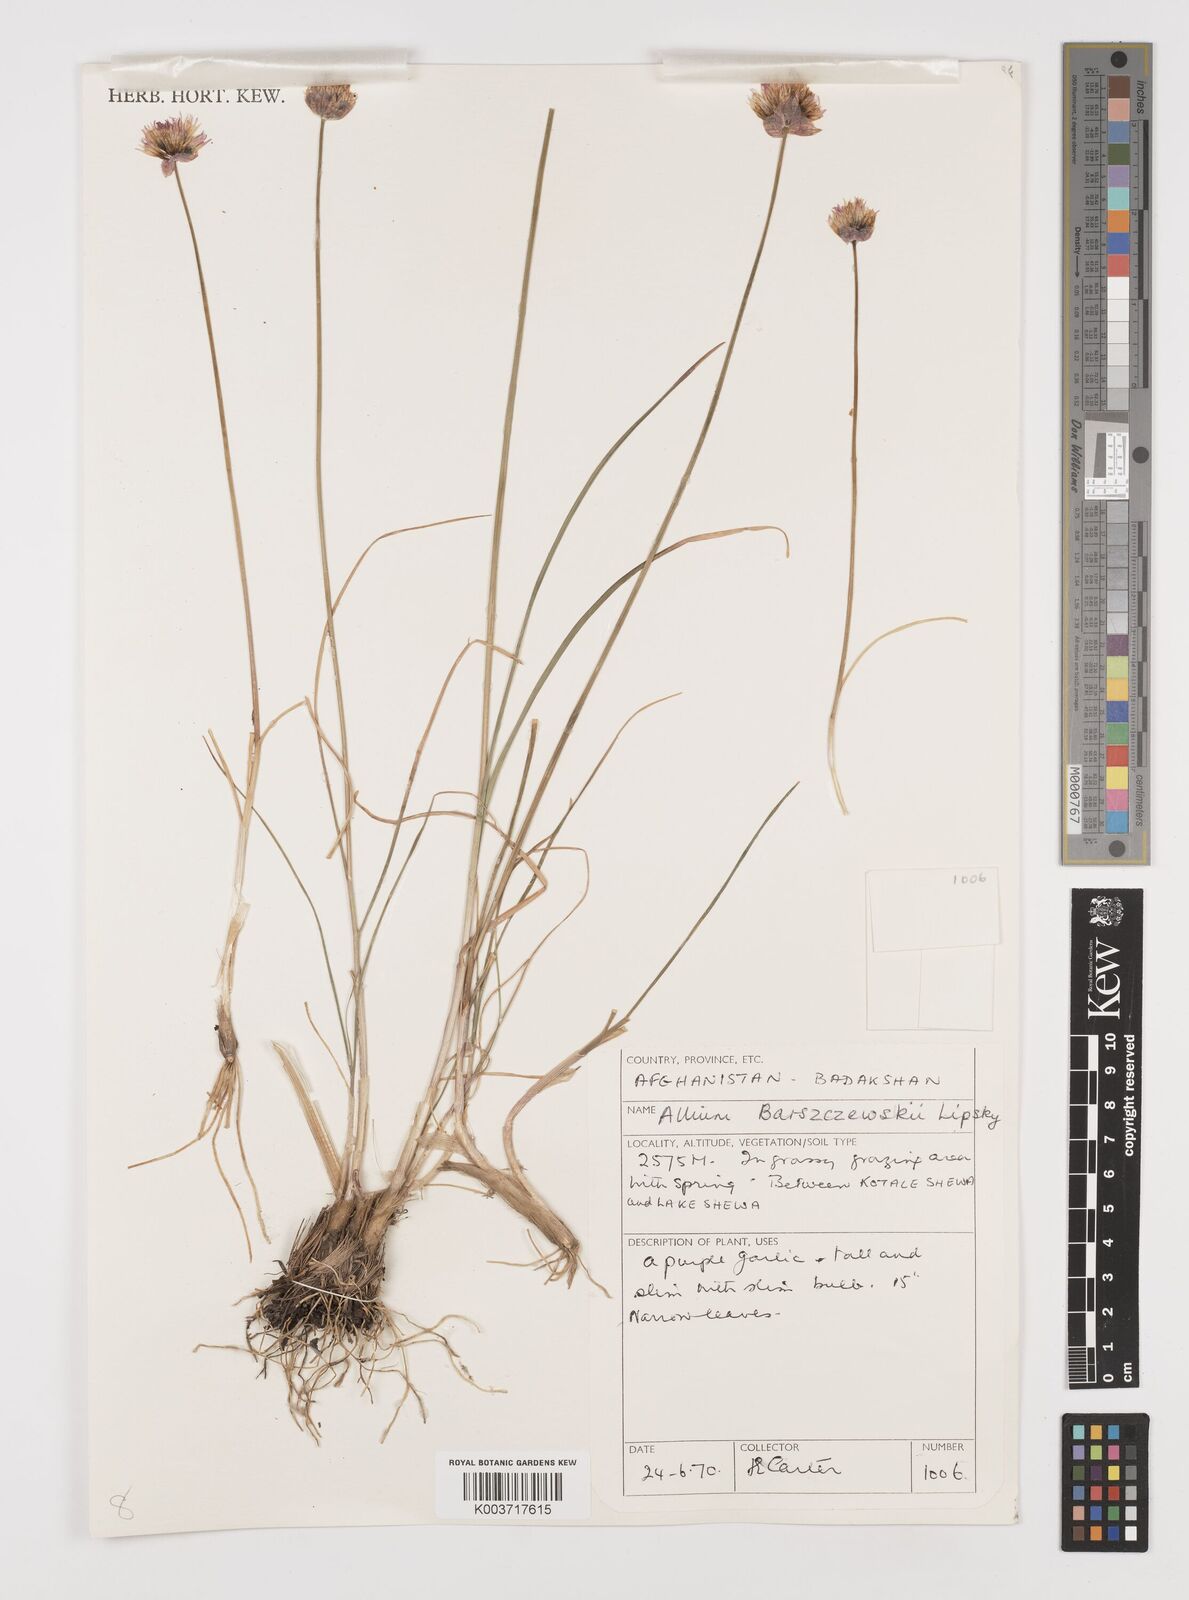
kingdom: Plantae
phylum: Tracheophyta
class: Liliopsida
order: Asparagales
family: Amaryllidaceae
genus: Allium
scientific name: Allium barsczewskii
